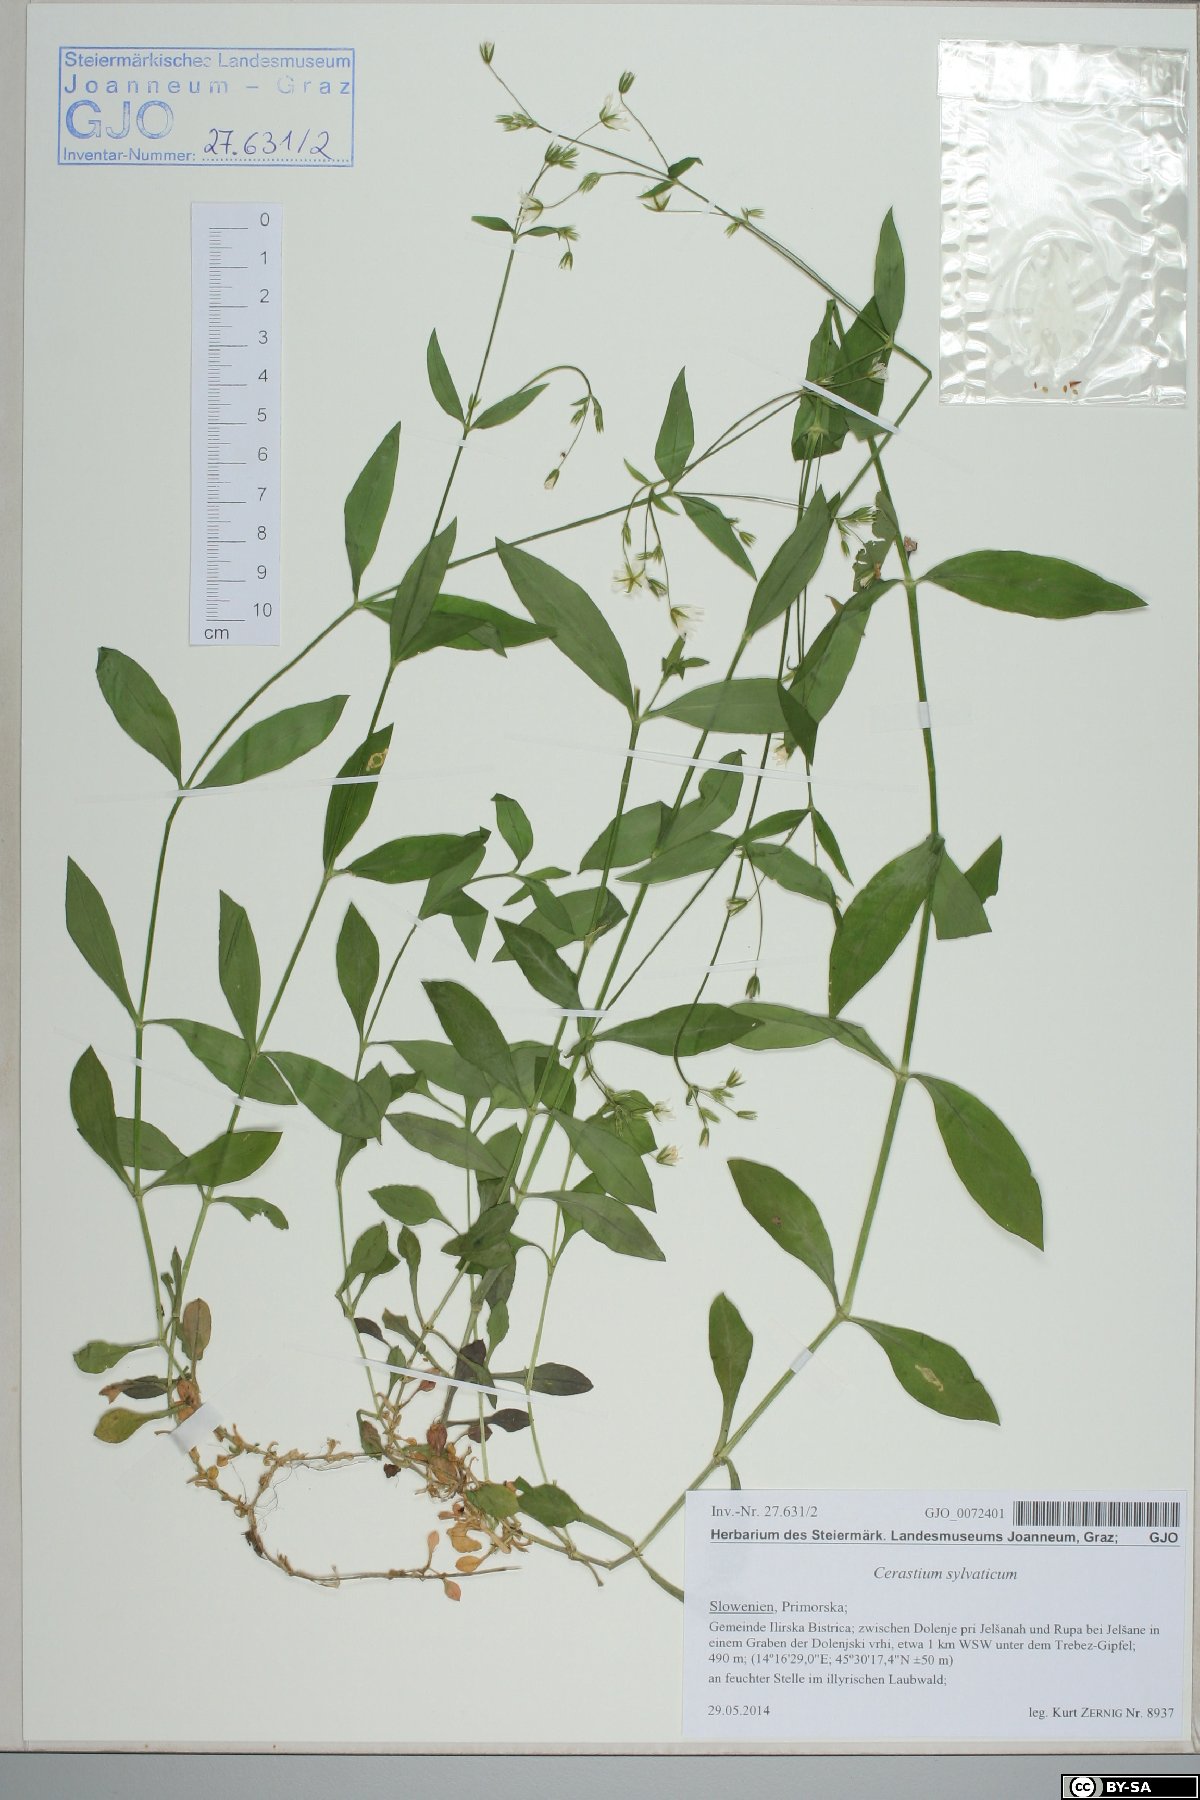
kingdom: Plantae
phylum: Tracheophyta
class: Magnoliopsida
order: Caryophyllales
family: Caryophyllaceae
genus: Cerastium
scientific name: Cerastium sylvaticum
